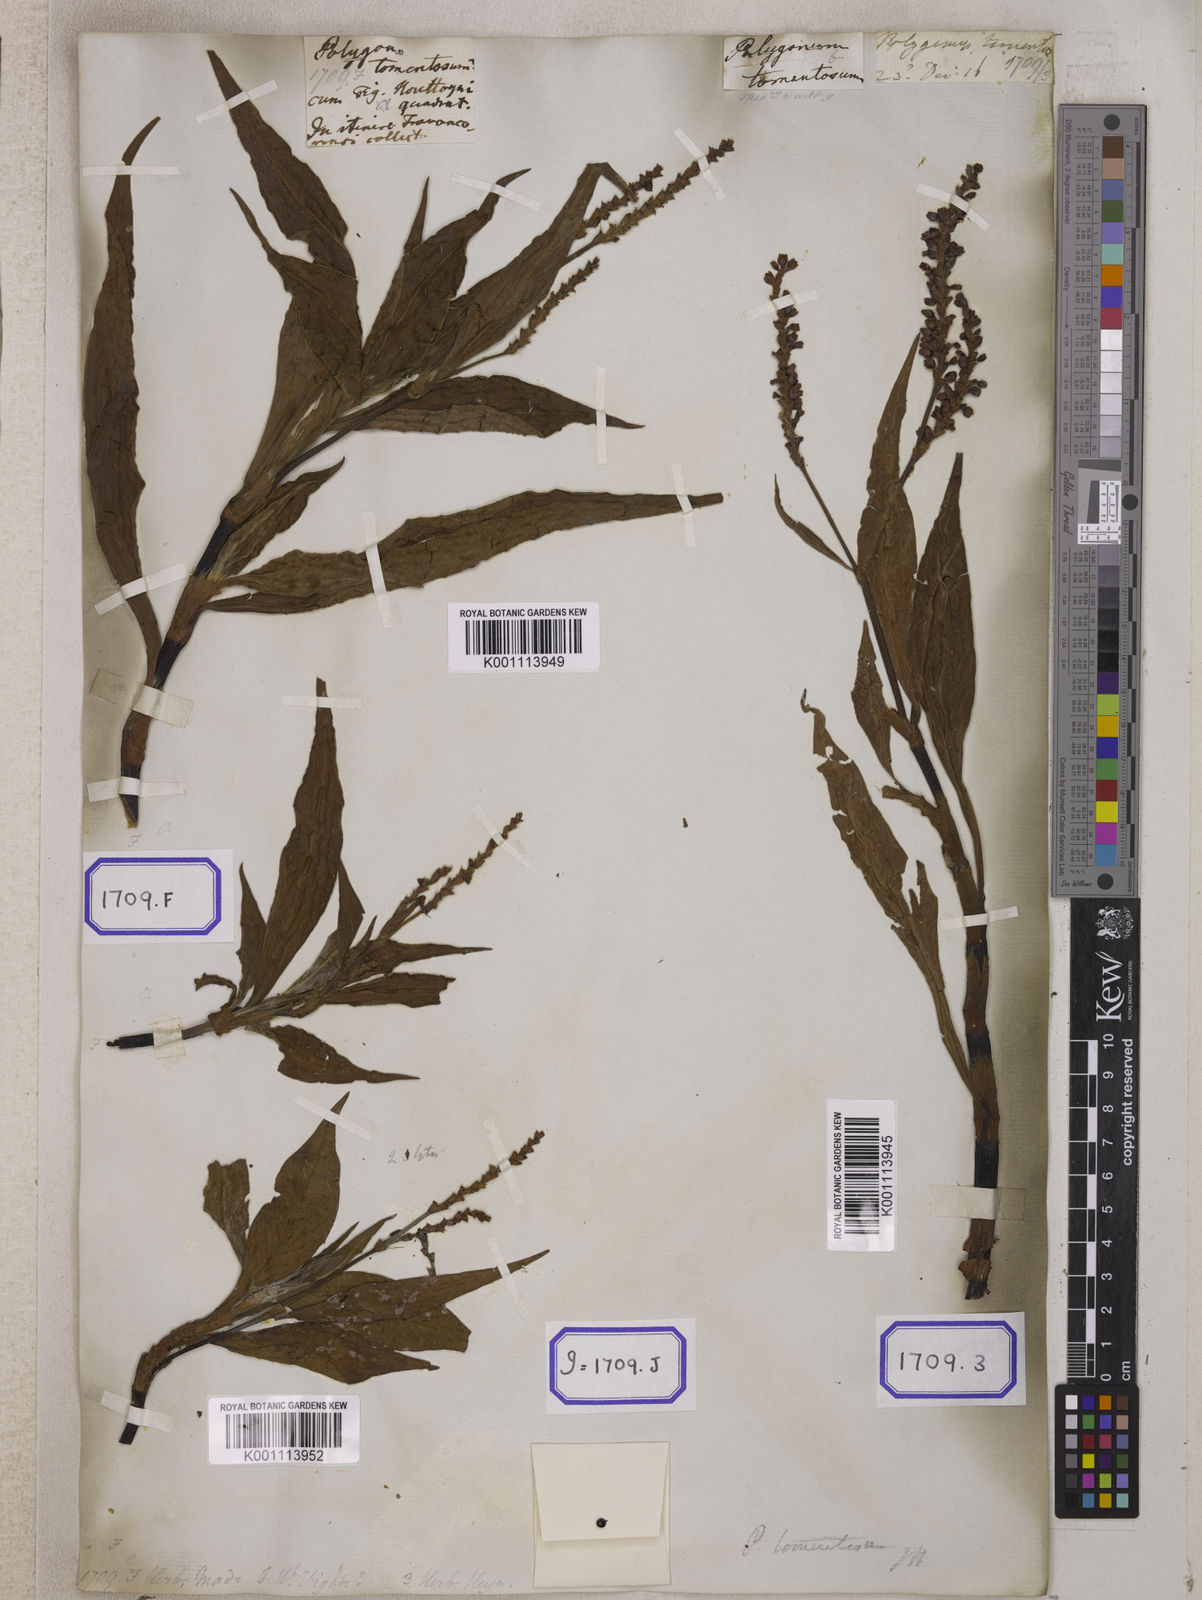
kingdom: Plantae
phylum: Tracheophyta
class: Magnoliopsida
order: Caryophyllales
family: Polygonaceae
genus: Persicaria
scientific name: Persicaria madagascariensis
